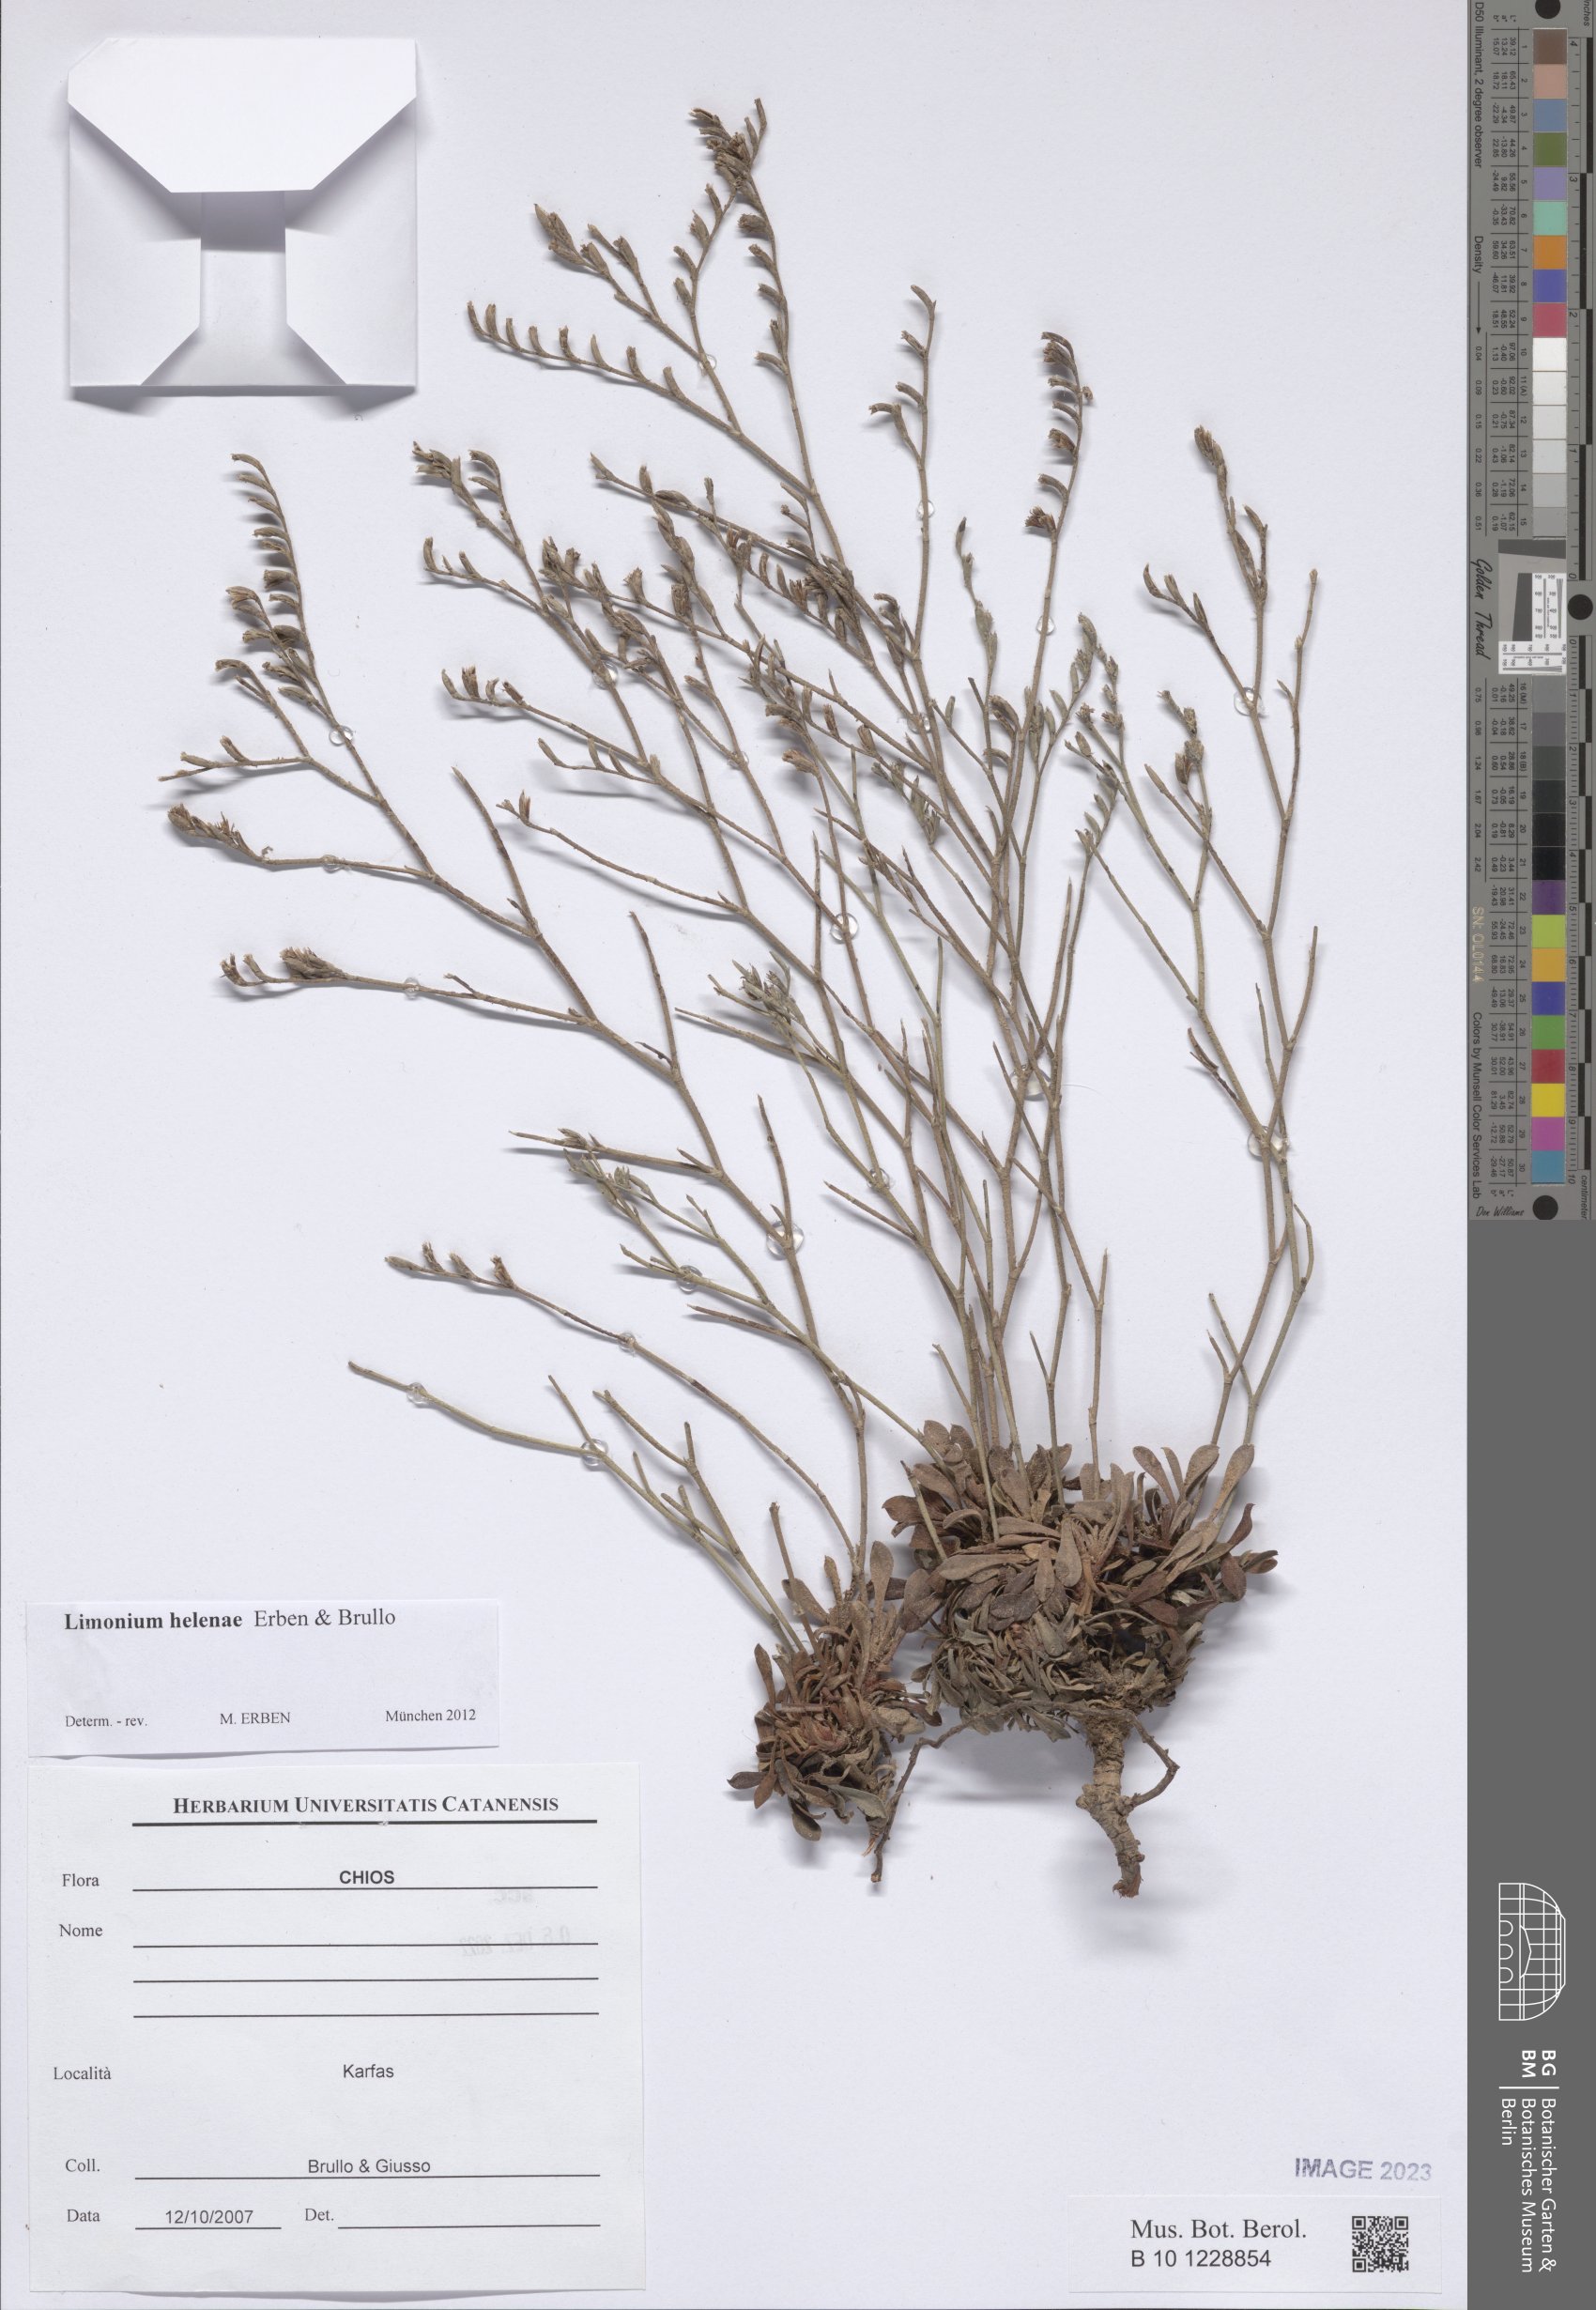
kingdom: Plantae
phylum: Tracheophyta
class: Magnoliopsida
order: Caryophyllales
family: Plumbaginaceae
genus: Limonium
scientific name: Limonium helenae
